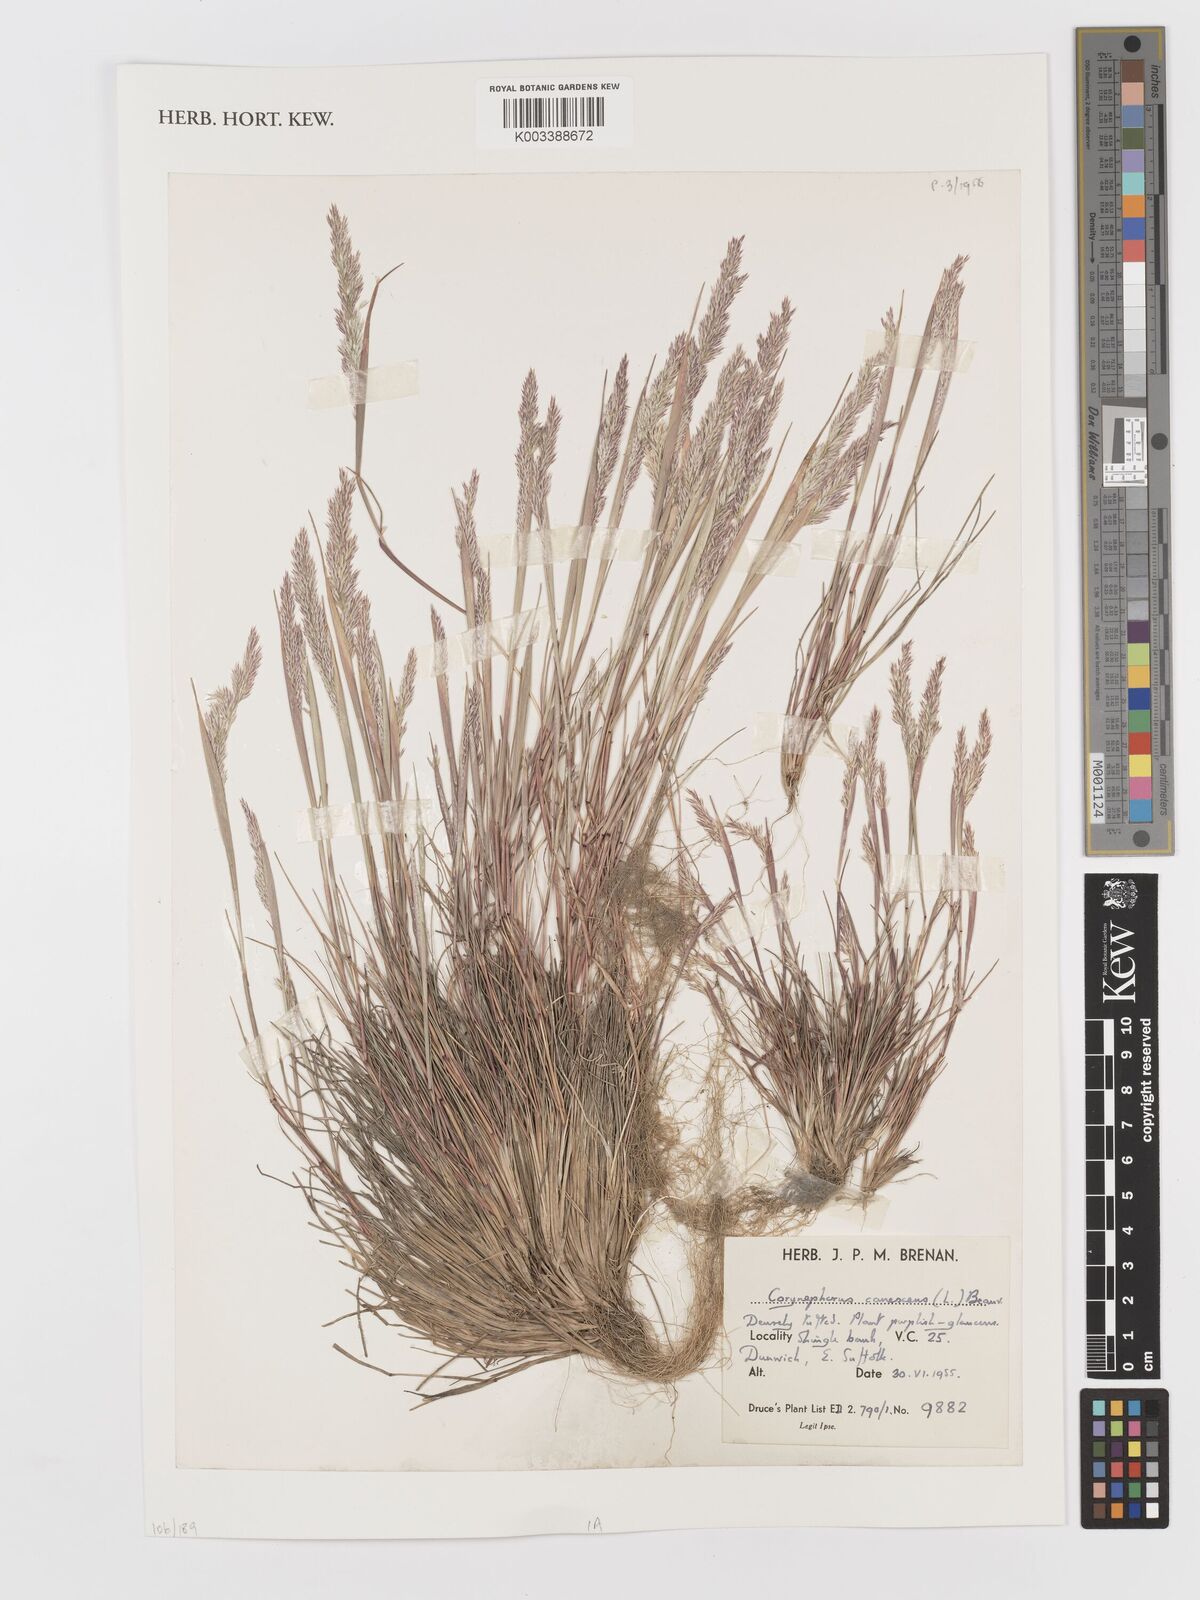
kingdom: Plantae
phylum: Tracheophyta
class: Liliopsida
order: Poales
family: Poaceae
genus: Corynephorus
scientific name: Corynephorus canescens
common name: Grey hair-grass
